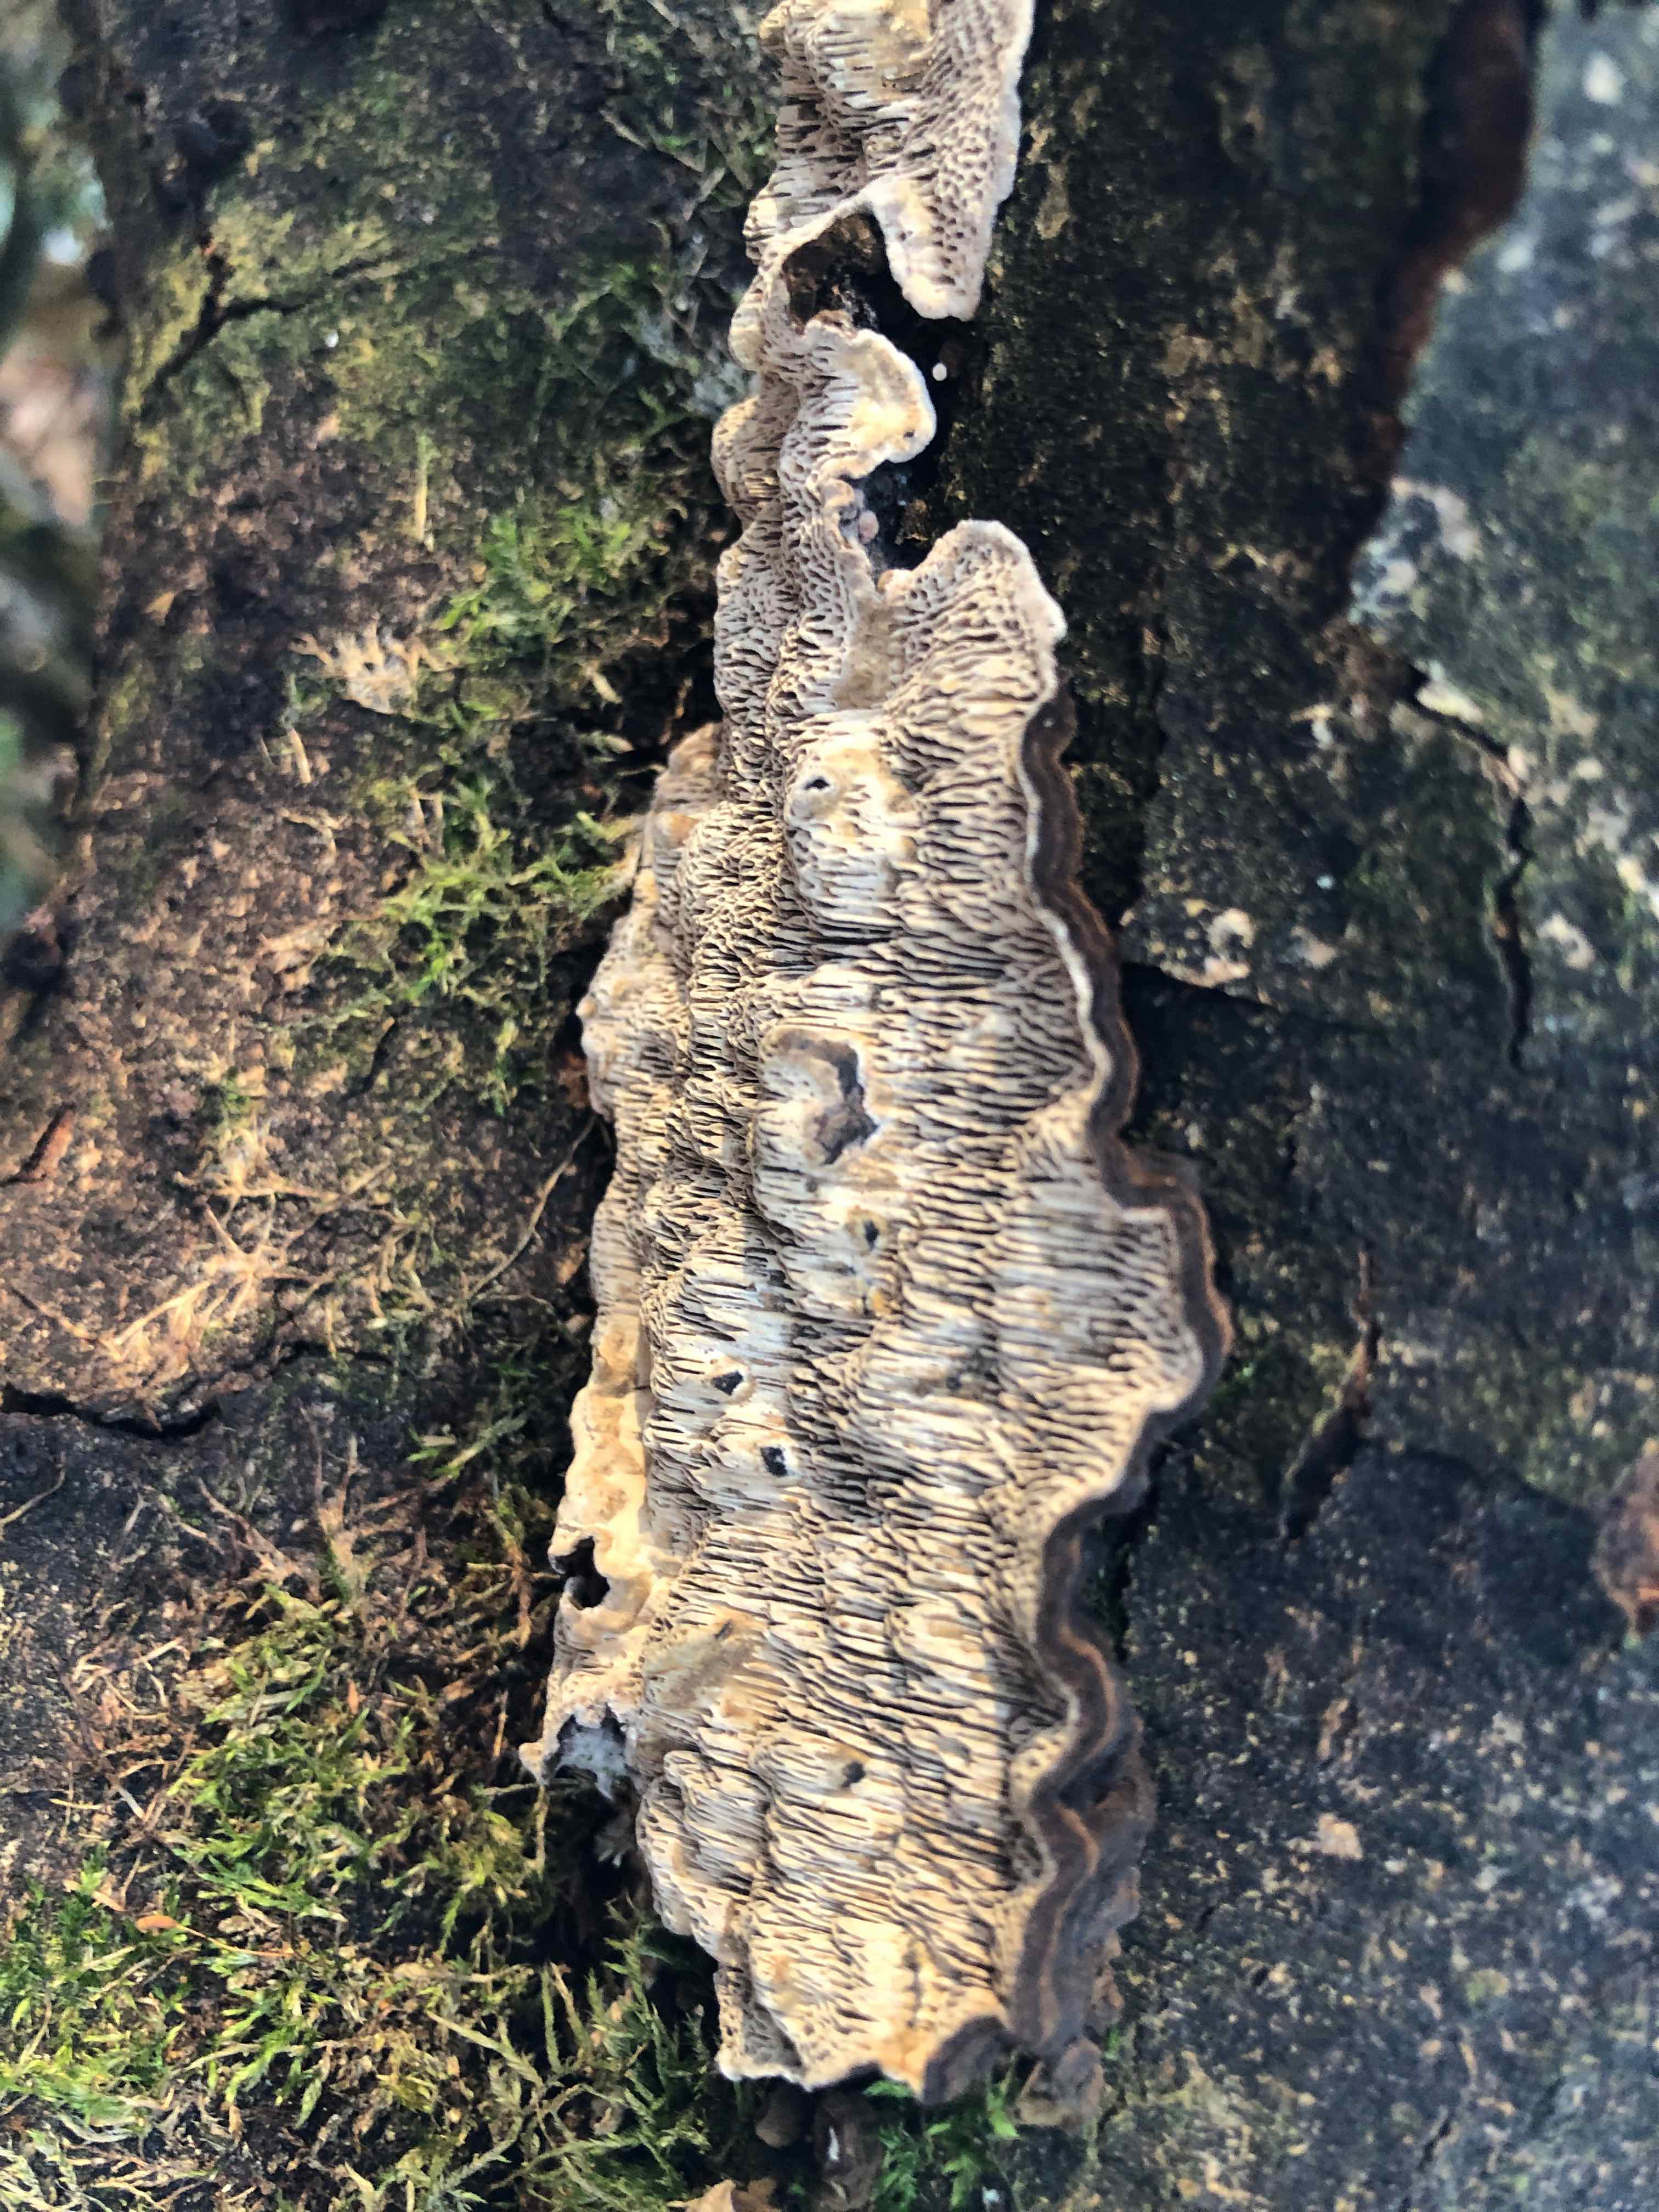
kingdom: Fungi
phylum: Basidiomycota
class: Agaricomycetes
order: Polyporales
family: Polyporaceae
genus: Podofomes
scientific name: Podofomes mollis
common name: blød begporesvamp
